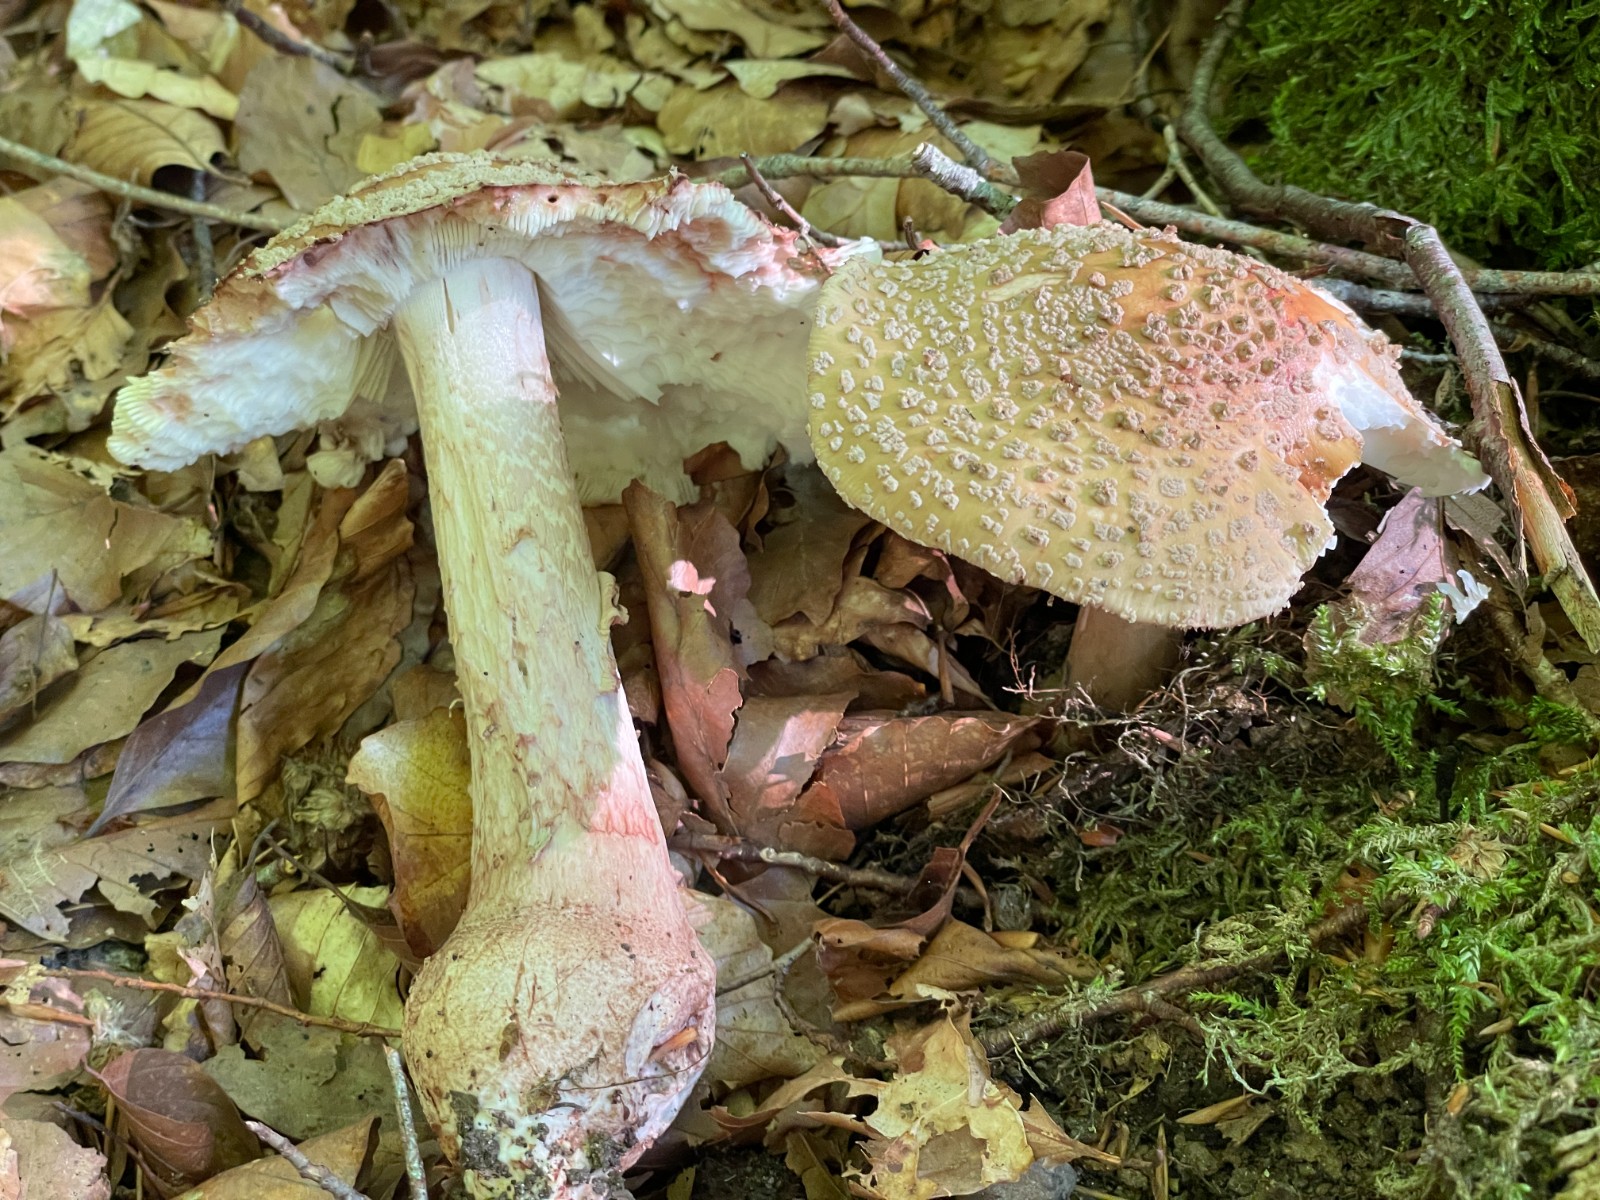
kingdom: Fungi
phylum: Basidiomycota
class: Agaricomycetes
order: Agaricales
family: Amanitaceae
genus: Amanita
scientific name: Amanita rubescens
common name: rødmende fluesvamp
